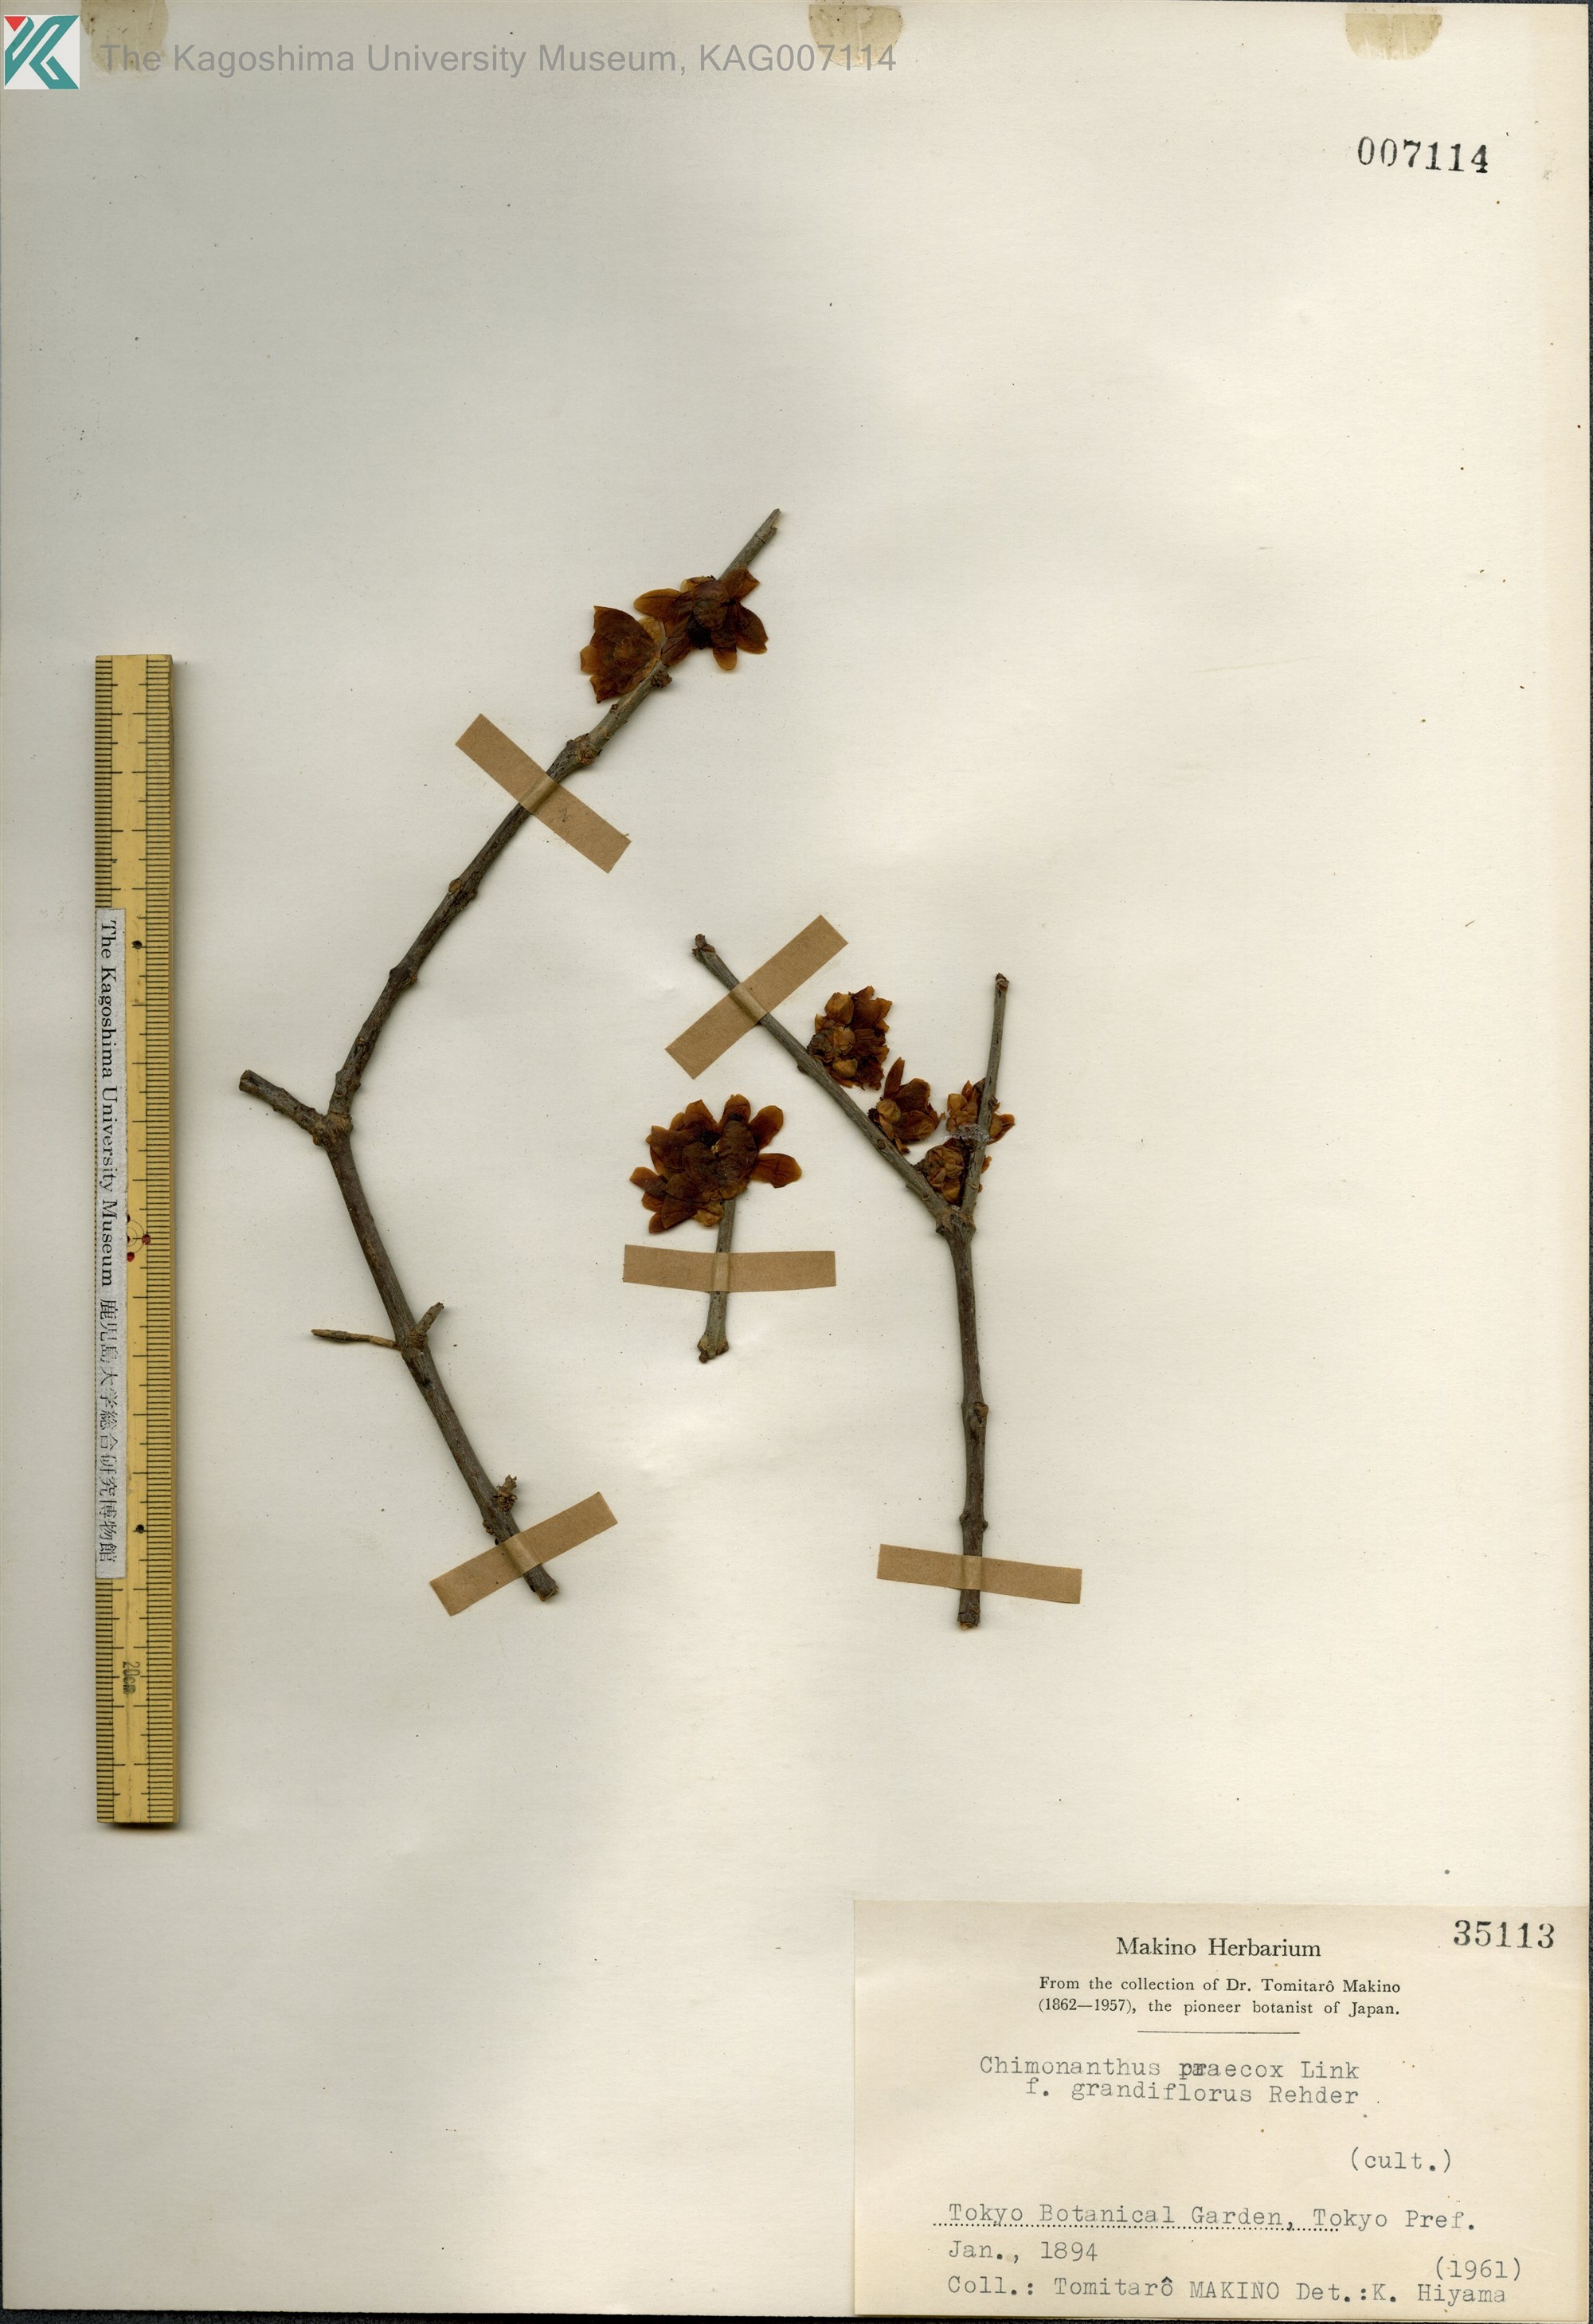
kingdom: Plantae
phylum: Tracheophyta
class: Magnoliopsida
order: Laurales
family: Calycanthaceae
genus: Chimonanthus
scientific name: Chimonanthus praecox
